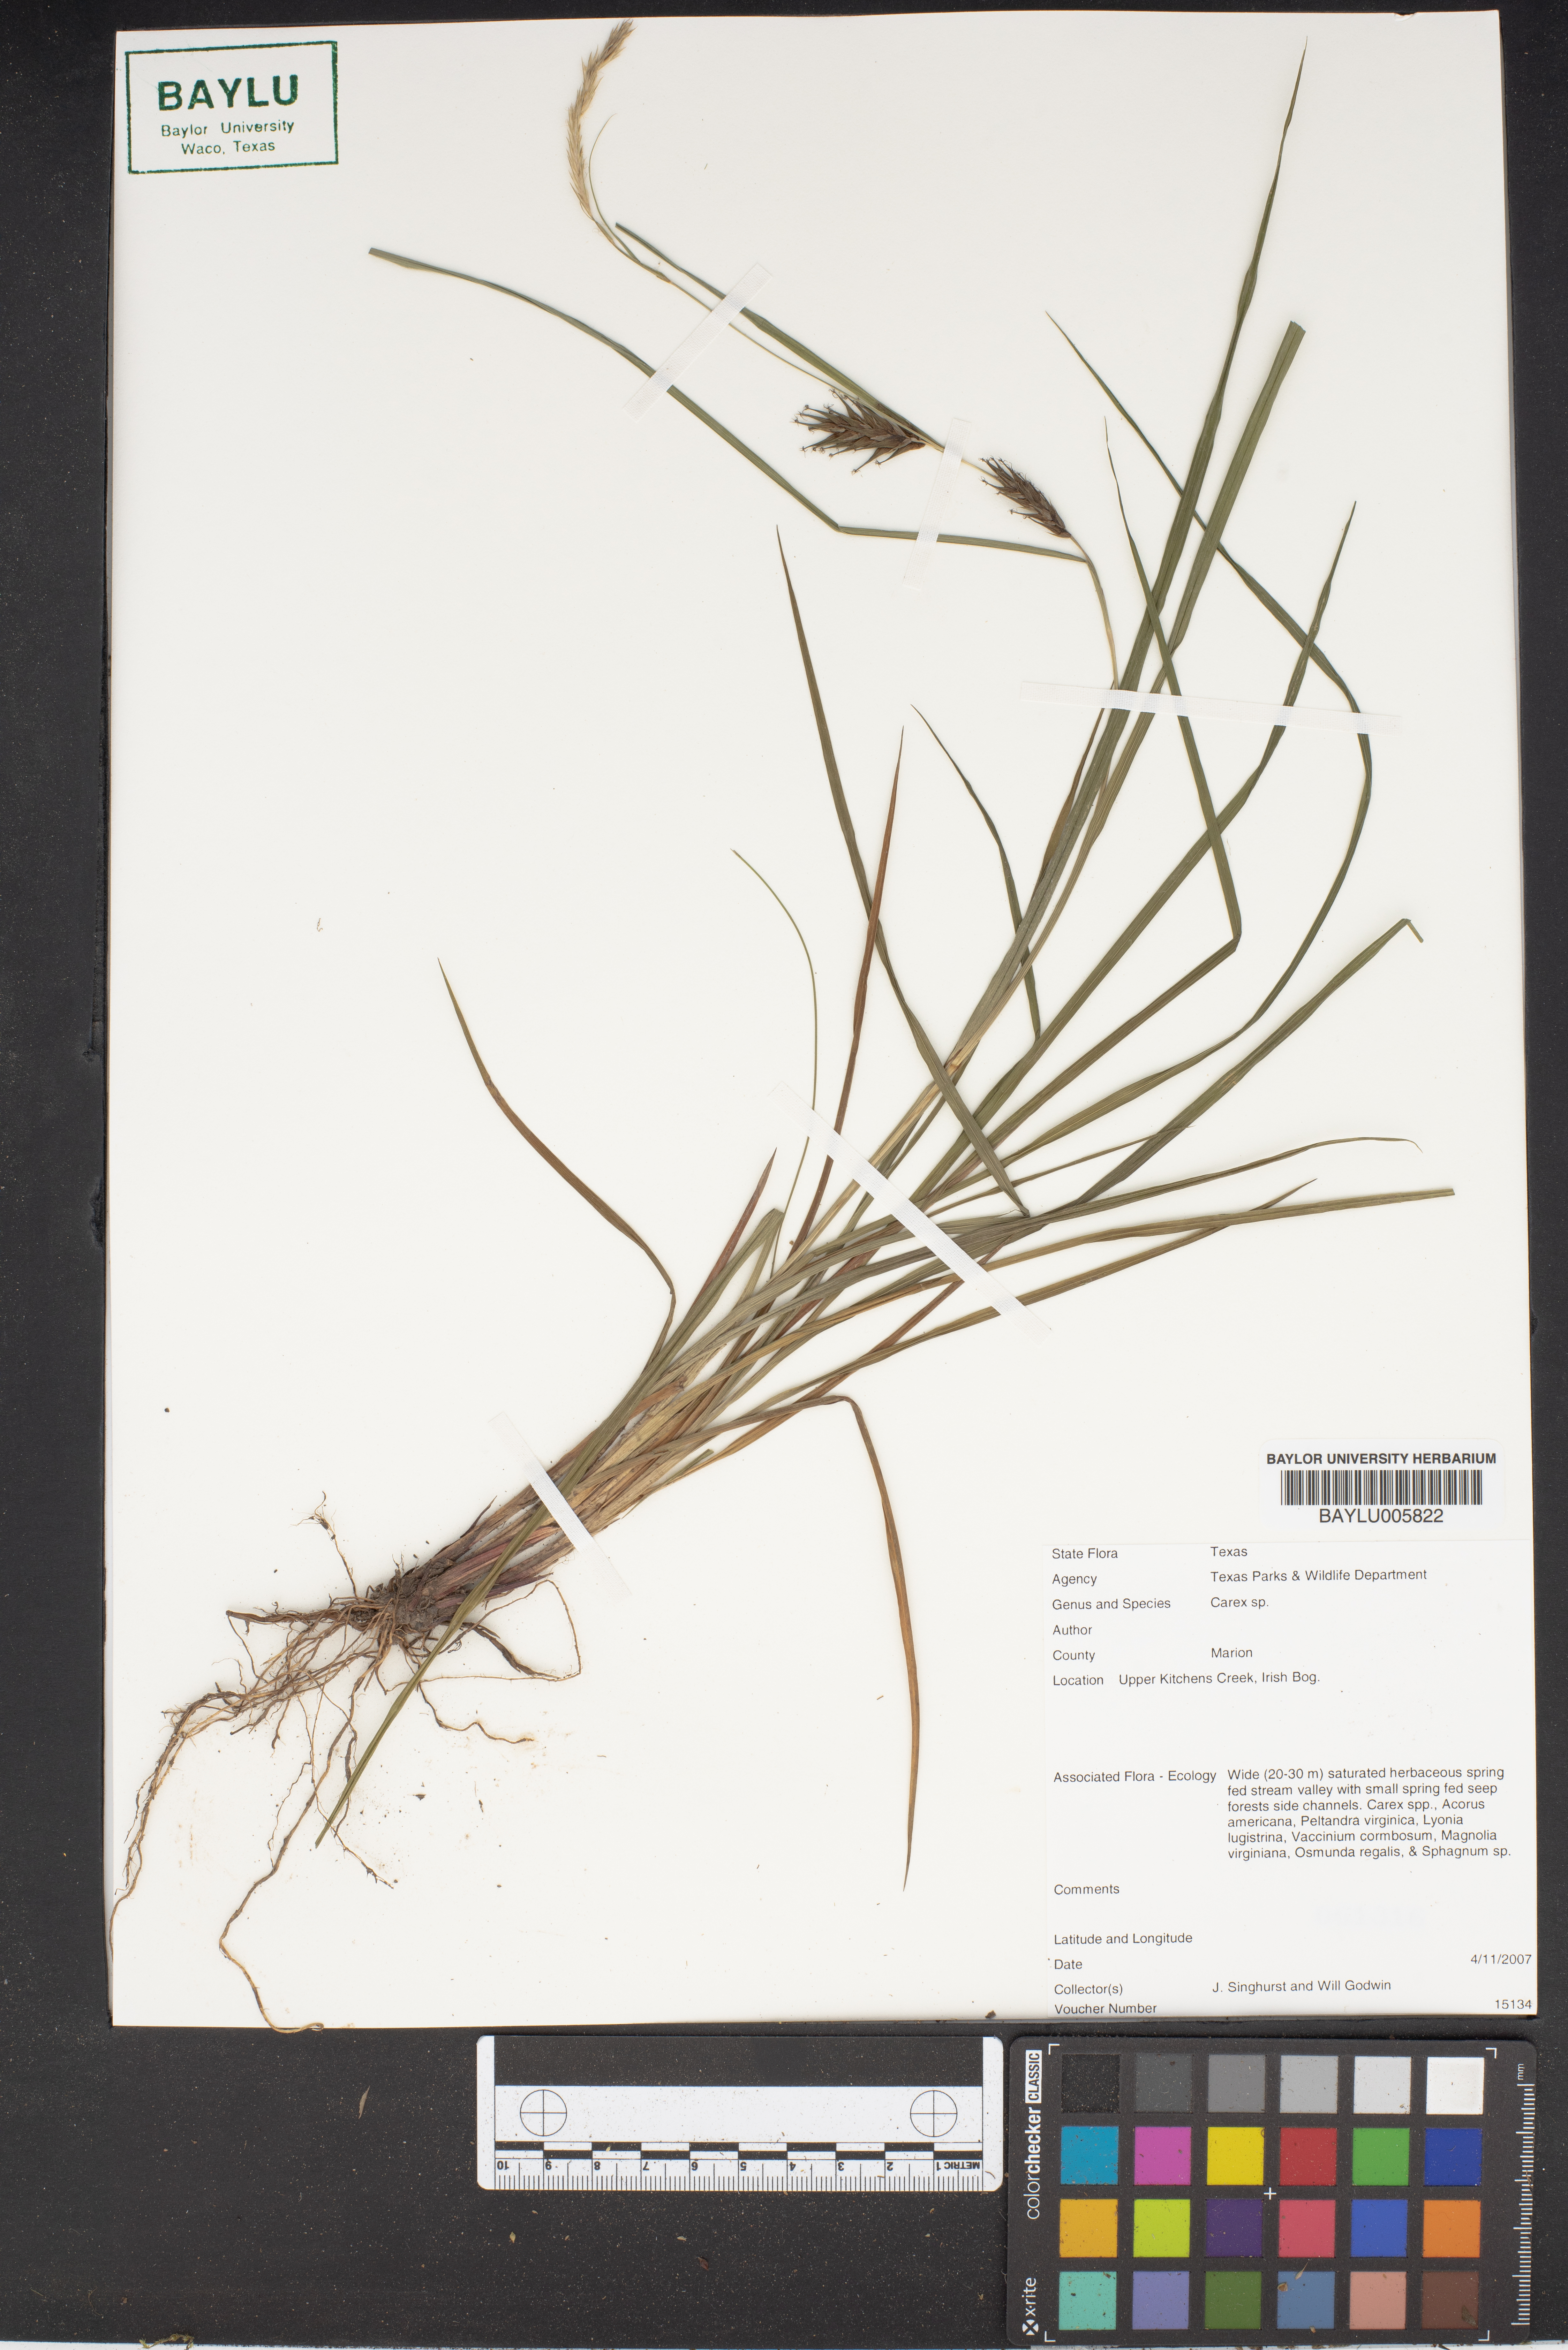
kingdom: Plantae
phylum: Tracheophyta
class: Liliopsida
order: Poales
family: Cyperaceae
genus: Carex
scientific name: Carex
